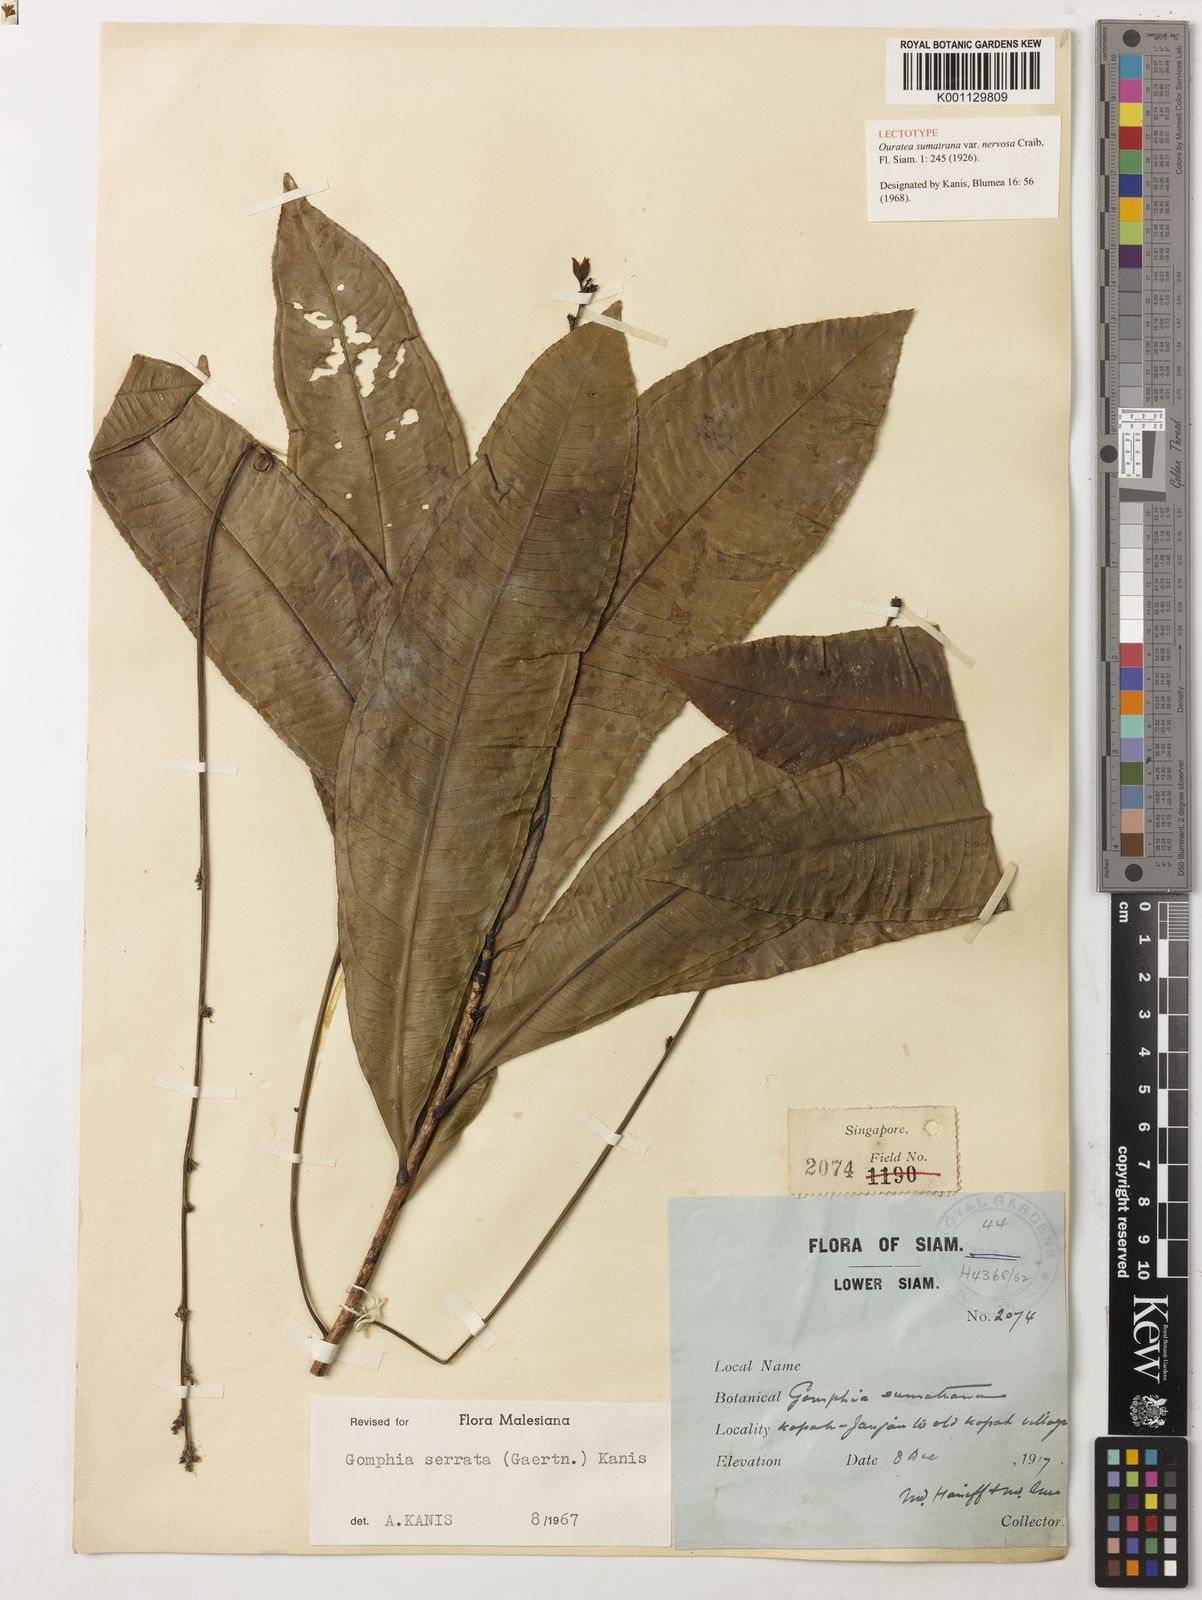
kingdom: Plantae
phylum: Tracheophyta
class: Magnoliopsida
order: Malpighiales
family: Ochnaceae
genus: Gomphia
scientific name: Gomphia serrata
